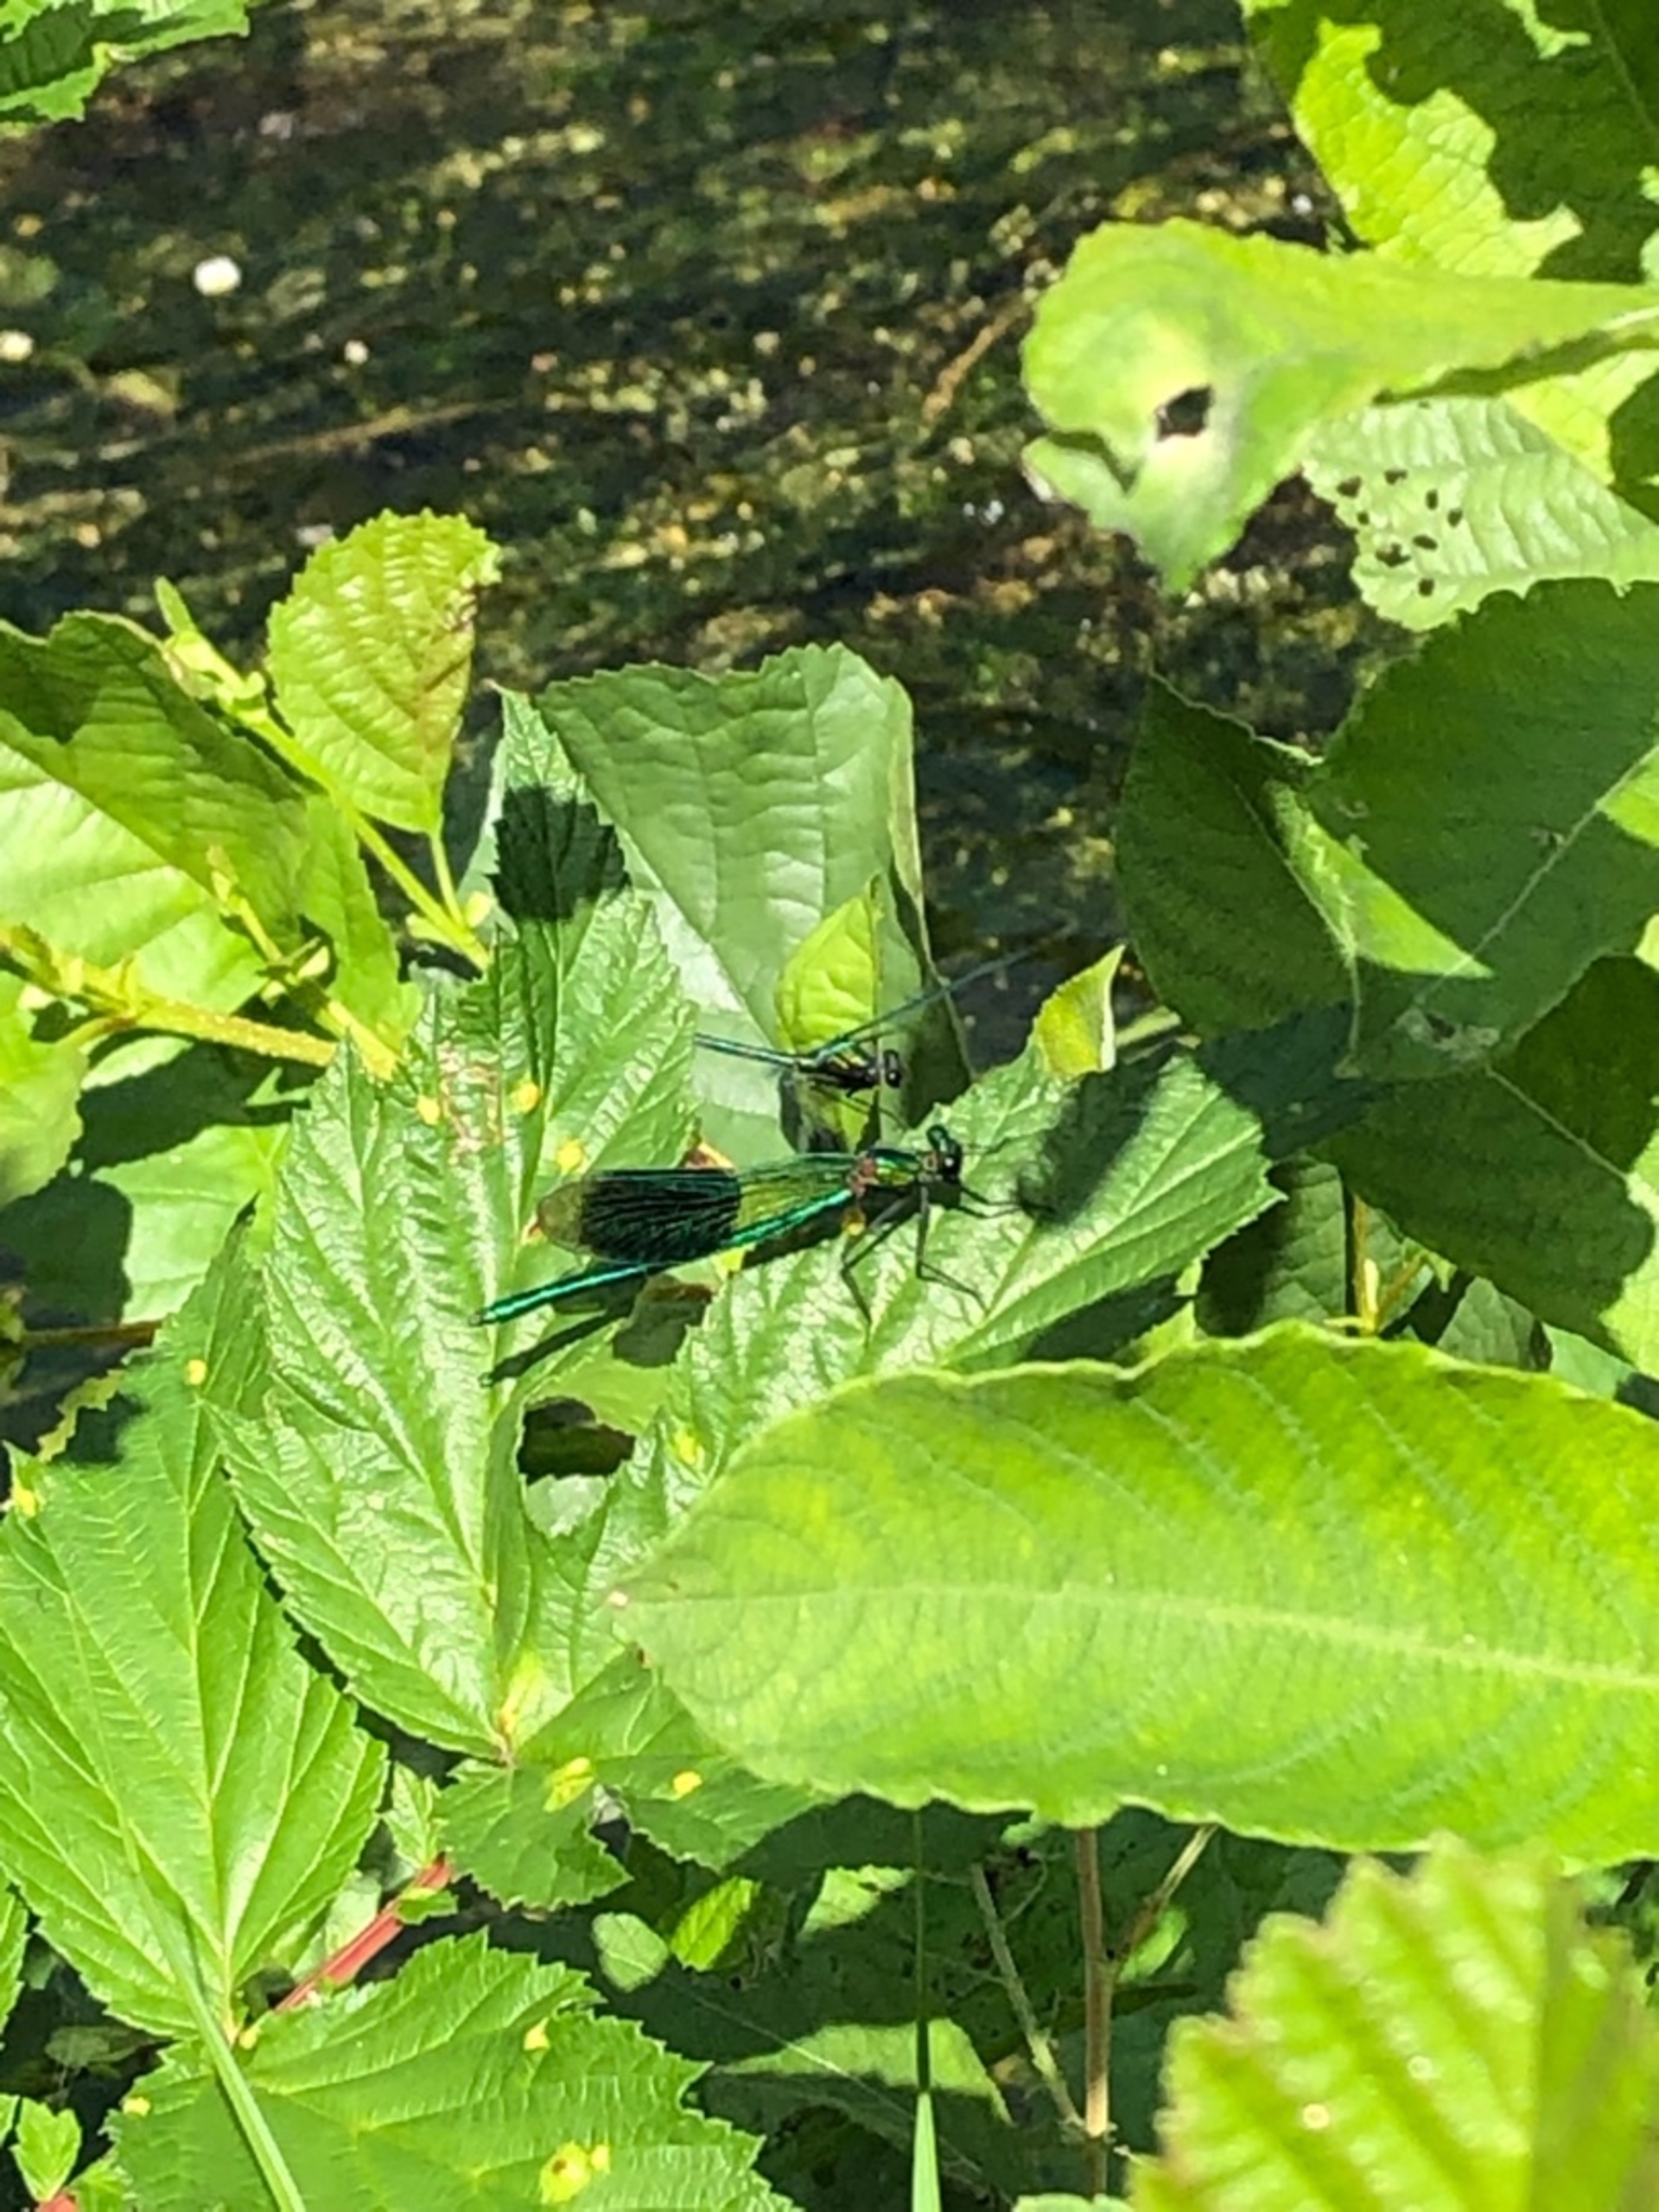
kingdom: Animalia
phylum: Arthropoda
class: Insecta
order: Odonata
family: Calopterygidae
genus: Calopteryx
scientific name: Calopteryx splendens
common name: Blåbåndet pragtvandnymfe
